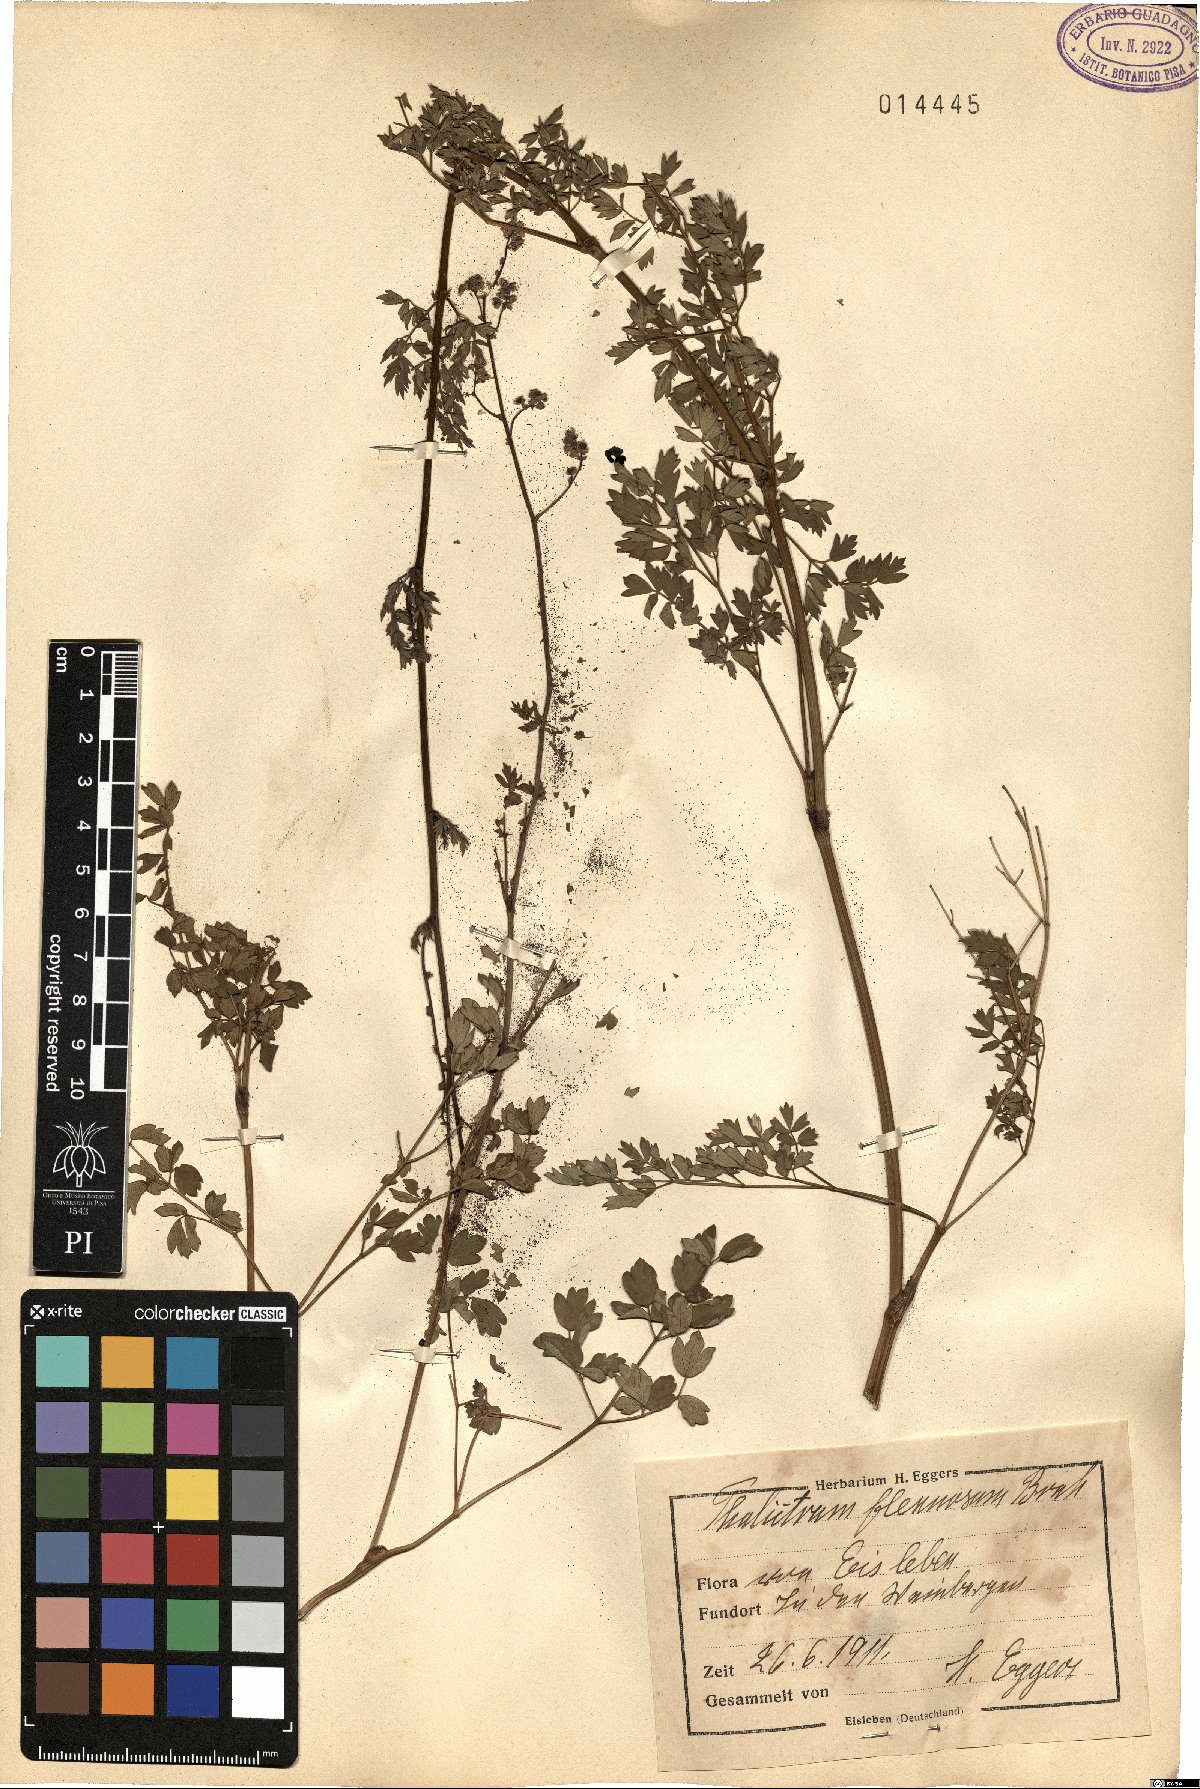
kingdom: Plantae
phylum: Tracheophyta
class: Magnoliopsida
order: Ranunculales
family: Ranunculaceae
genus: Thalictrum
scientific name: Thalictrum minus
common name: Lesser meadow-rue
